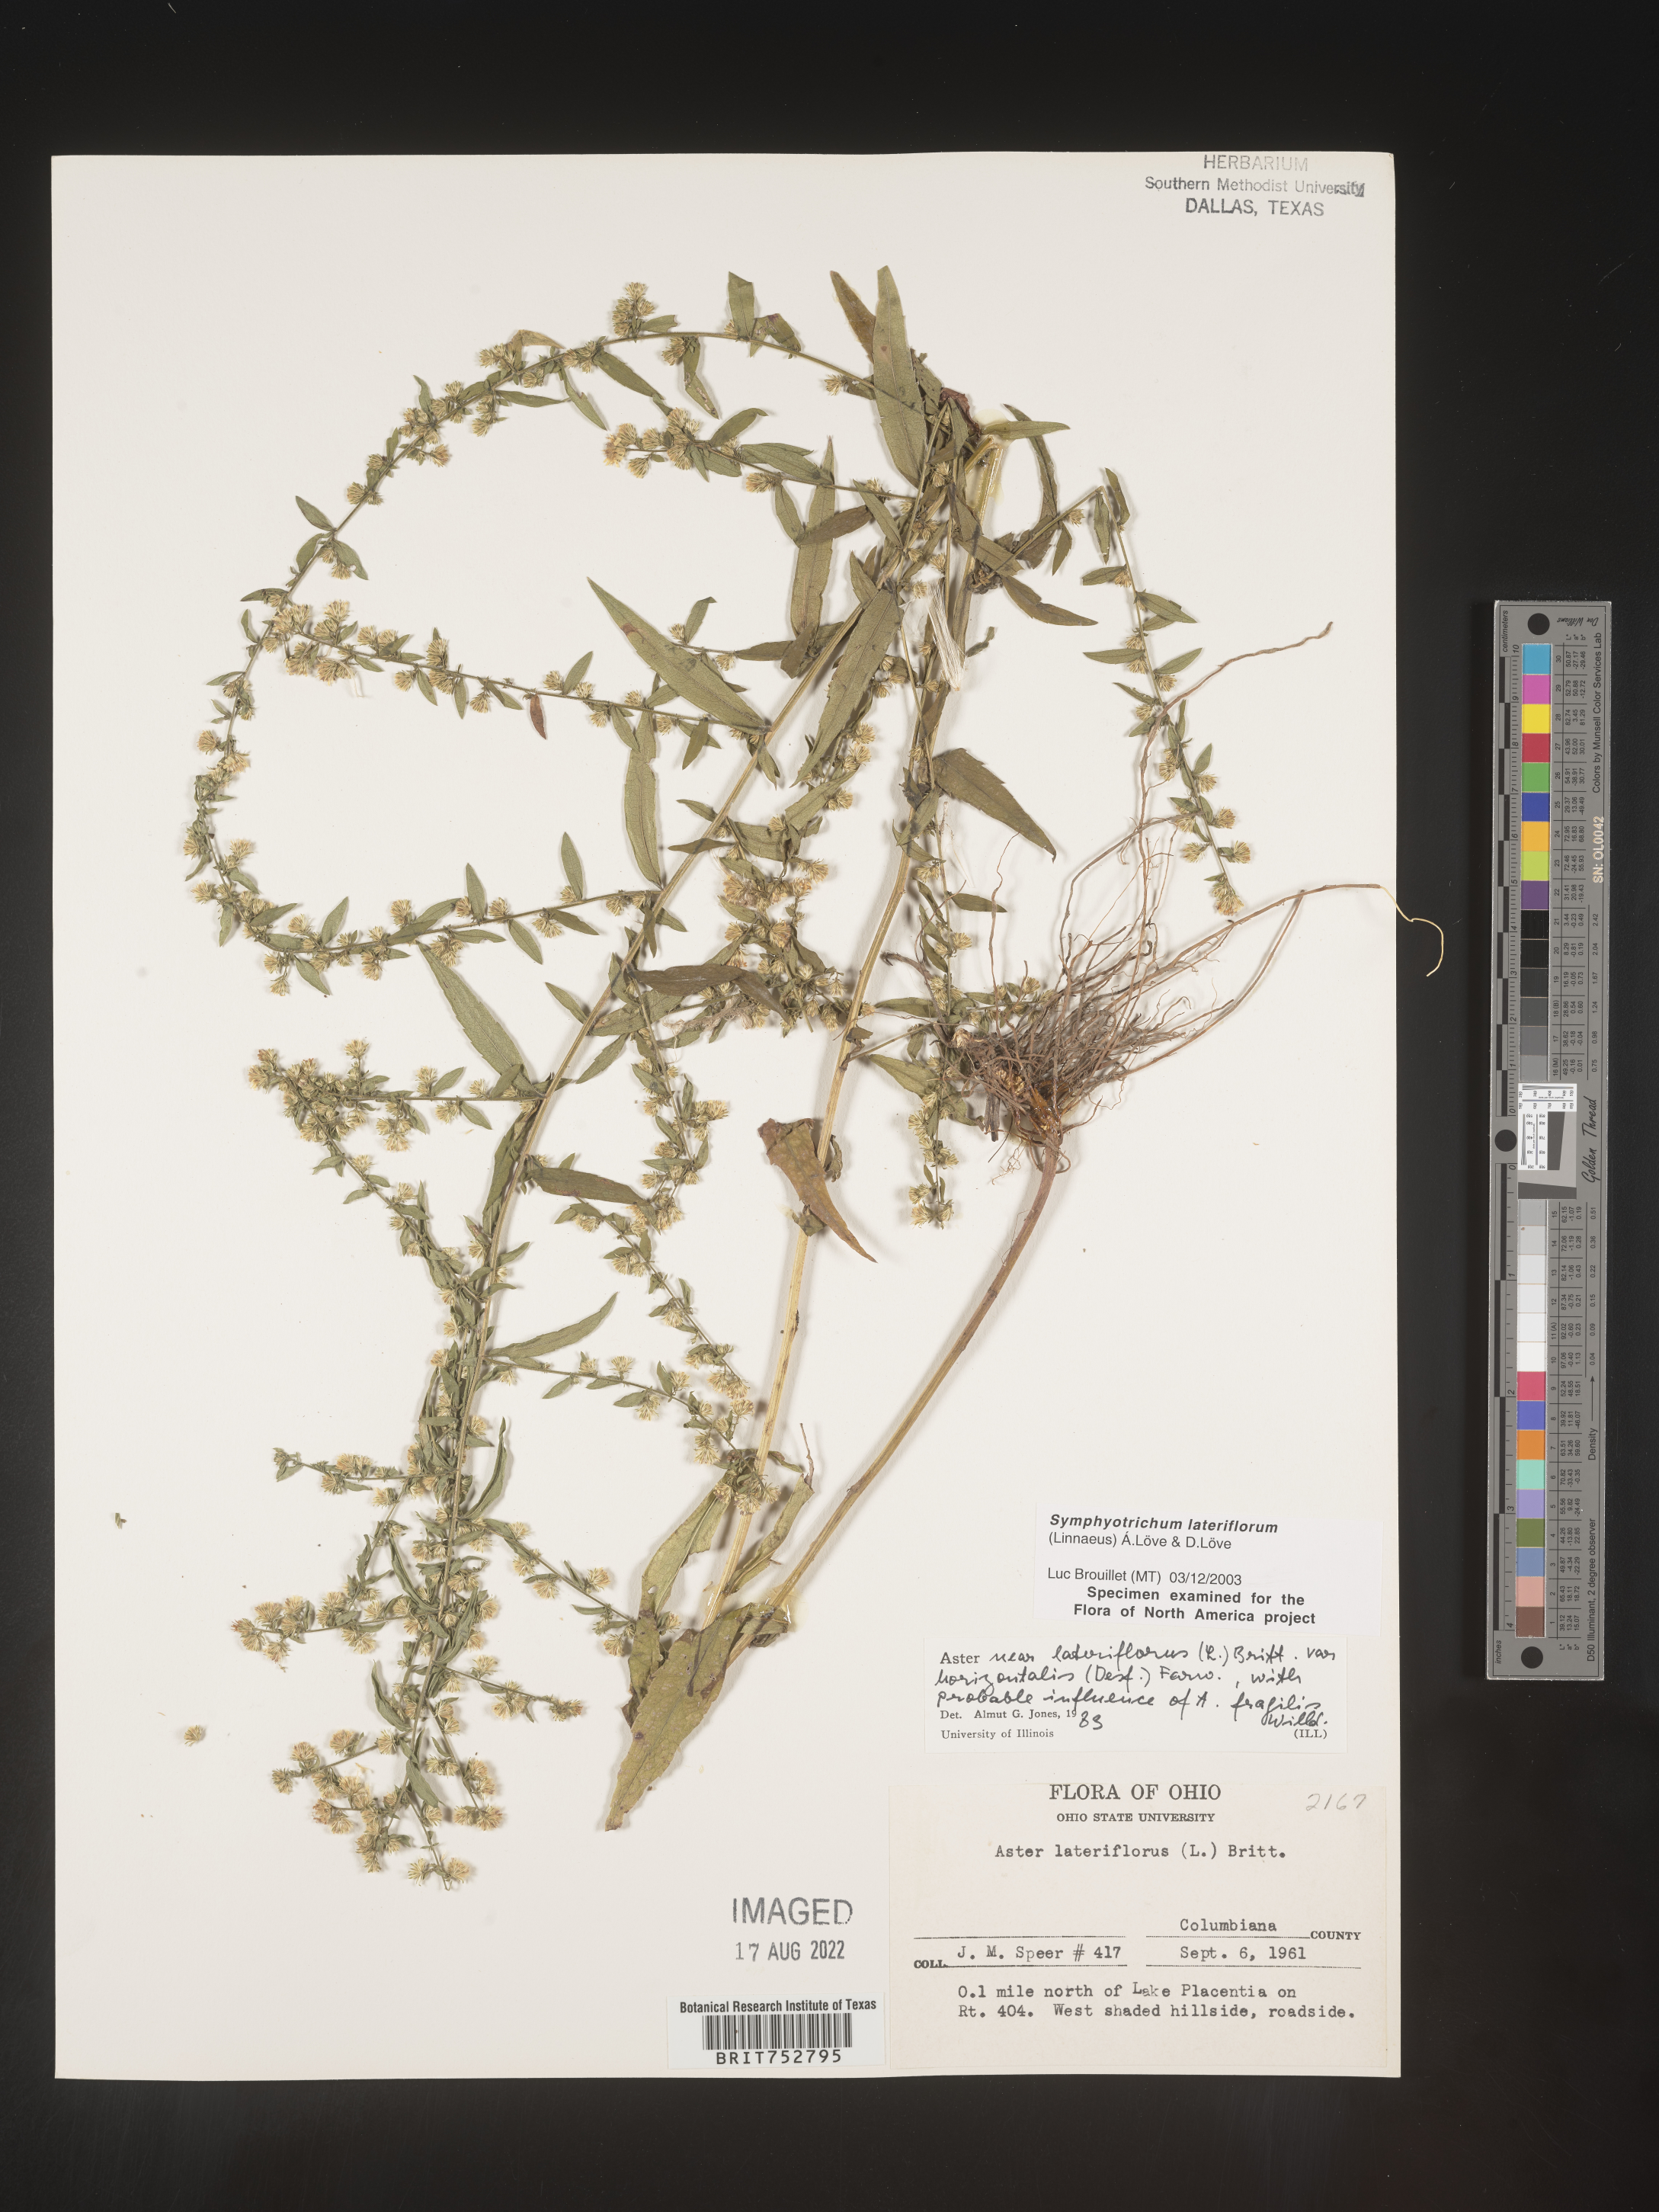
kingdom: Plantae
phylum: Tracheophyta
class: Magnoliopsida
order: Asterales
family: Asteraceae
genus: Symphyotrichum
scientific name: Symphyotrichum lateriflorum
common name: Calico aster
